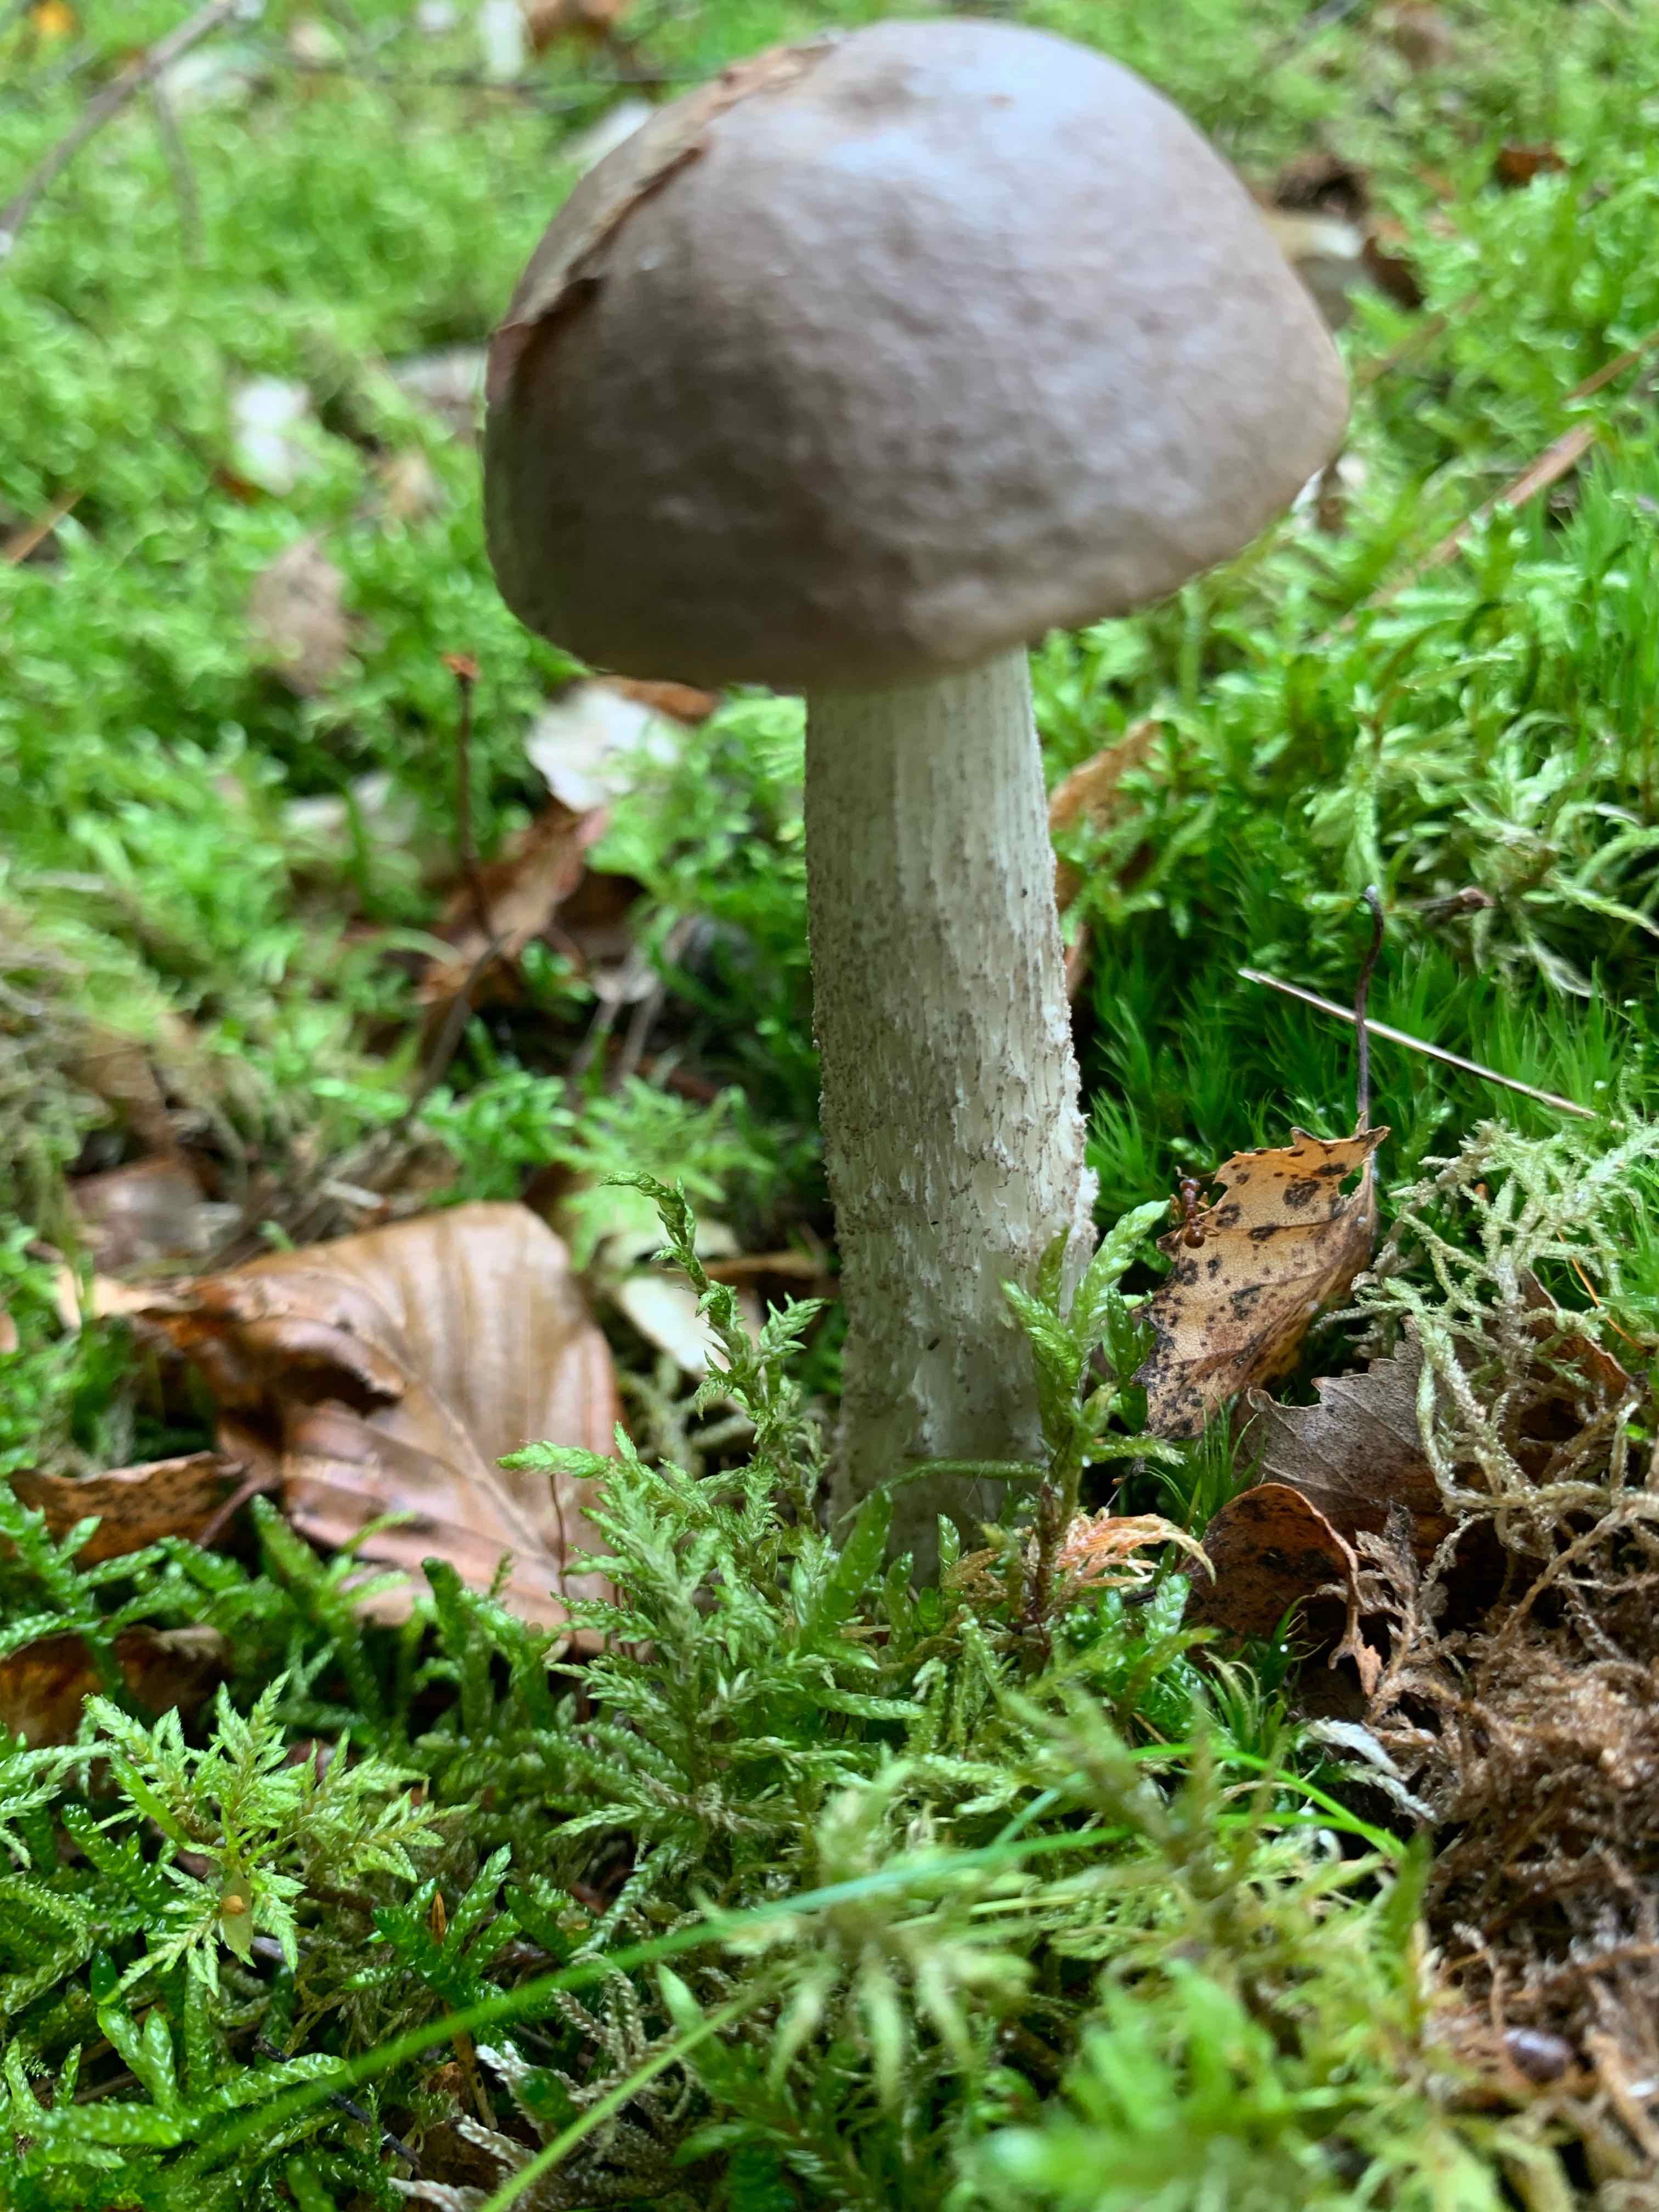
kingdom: Fungi
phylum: Basidiomycota
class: Agaricomycetes
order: Boletales
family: Boletaceae
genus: Leccinum
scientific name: Leccinum
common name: skælrørhat
